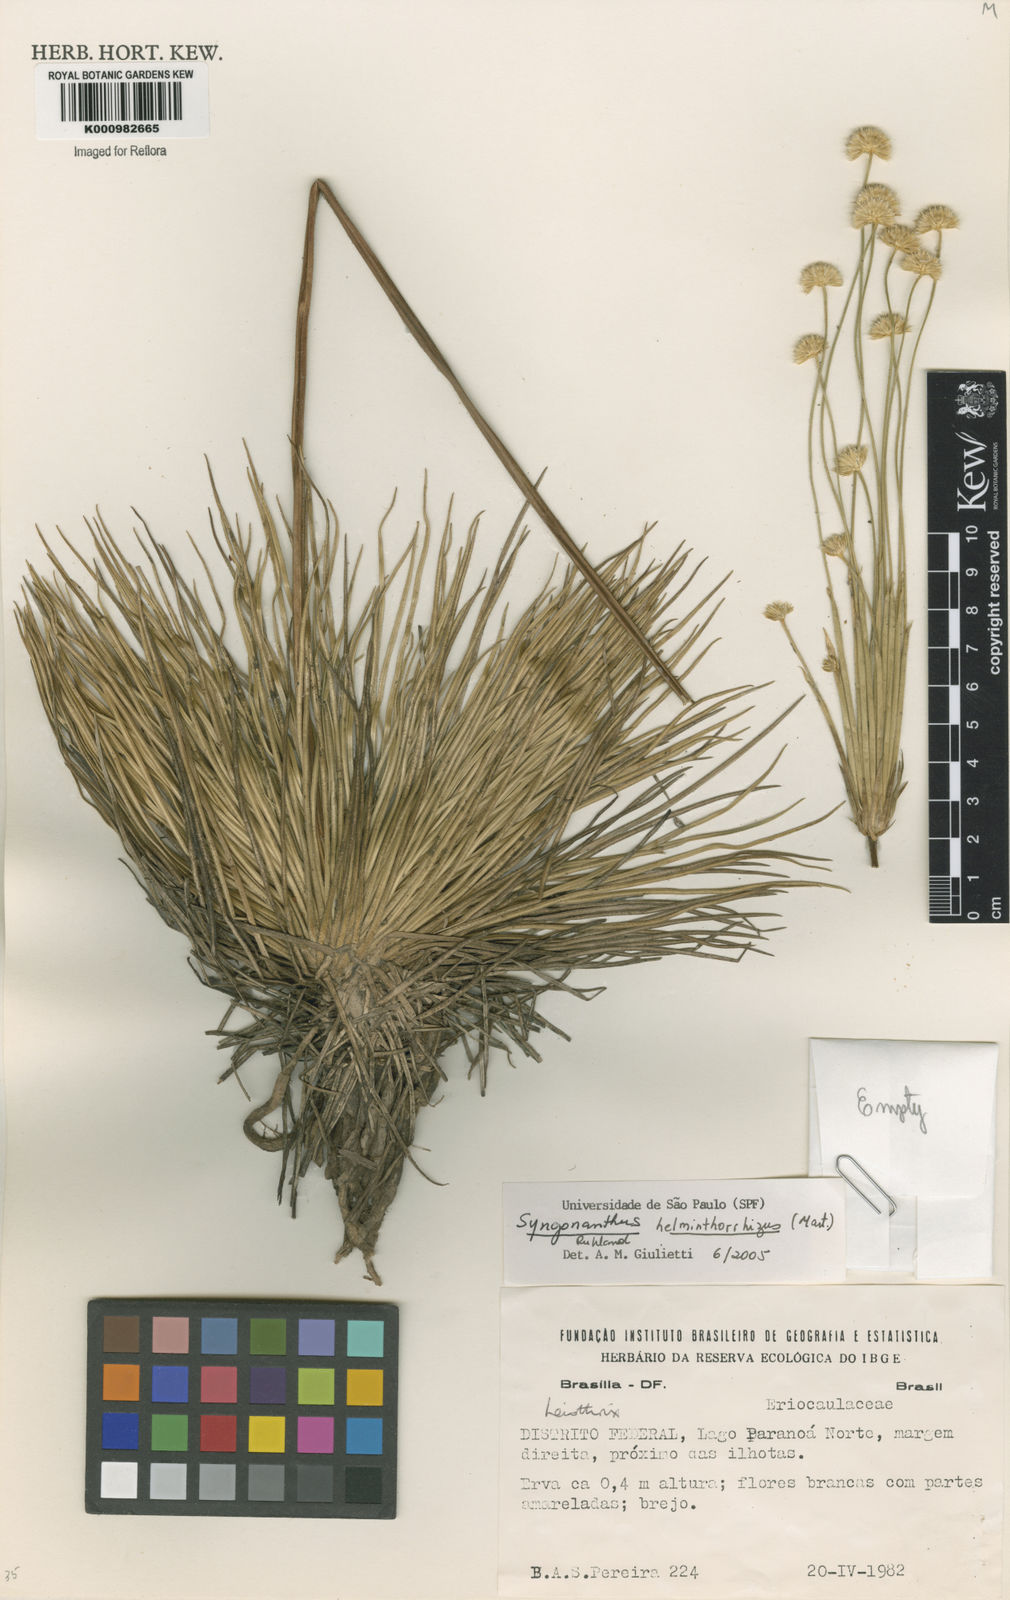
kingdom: Plantae
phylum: Tracheophyta
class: Liliopsida
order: Poales
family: Eriocaulaceae
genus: Syngonanthus
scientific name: Syngonanthus
